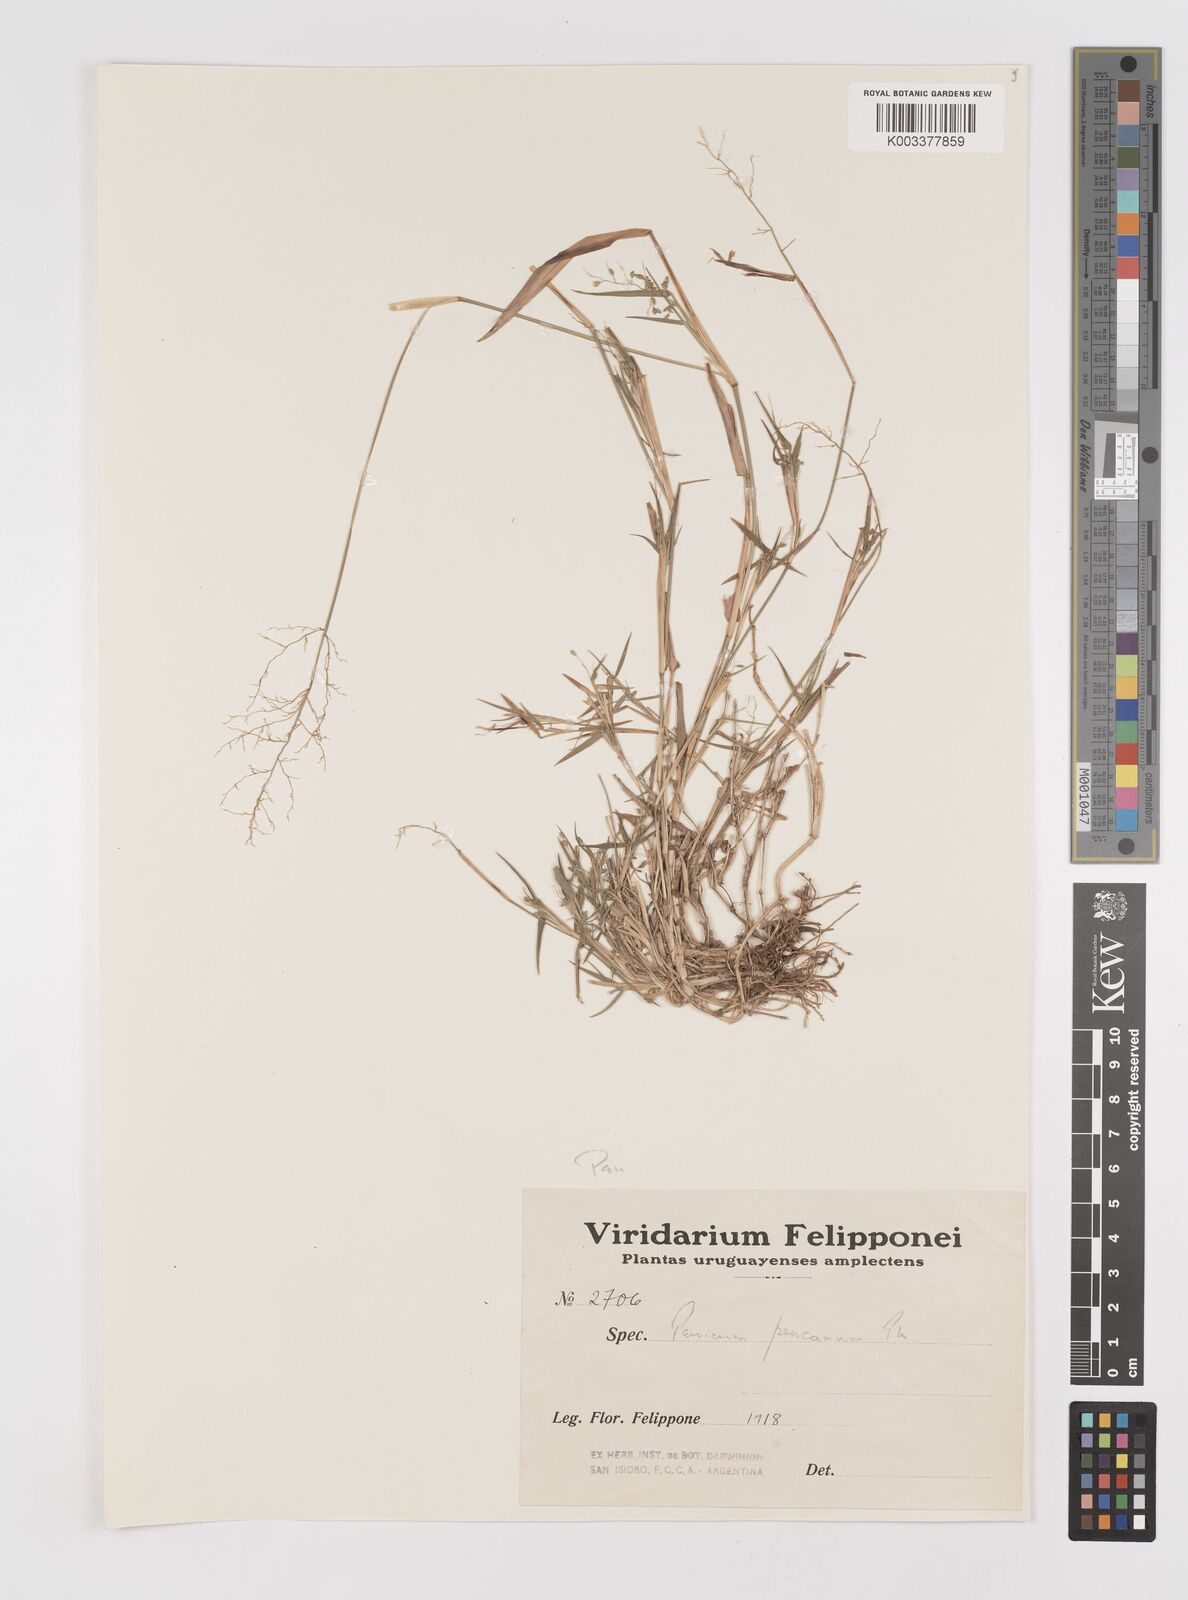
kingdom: Plantae
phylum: Tracheophyta
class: Liliopsida
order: Poales
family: Poaceae
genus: Dichanthelium
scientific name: Dichanthelium stigmosum
